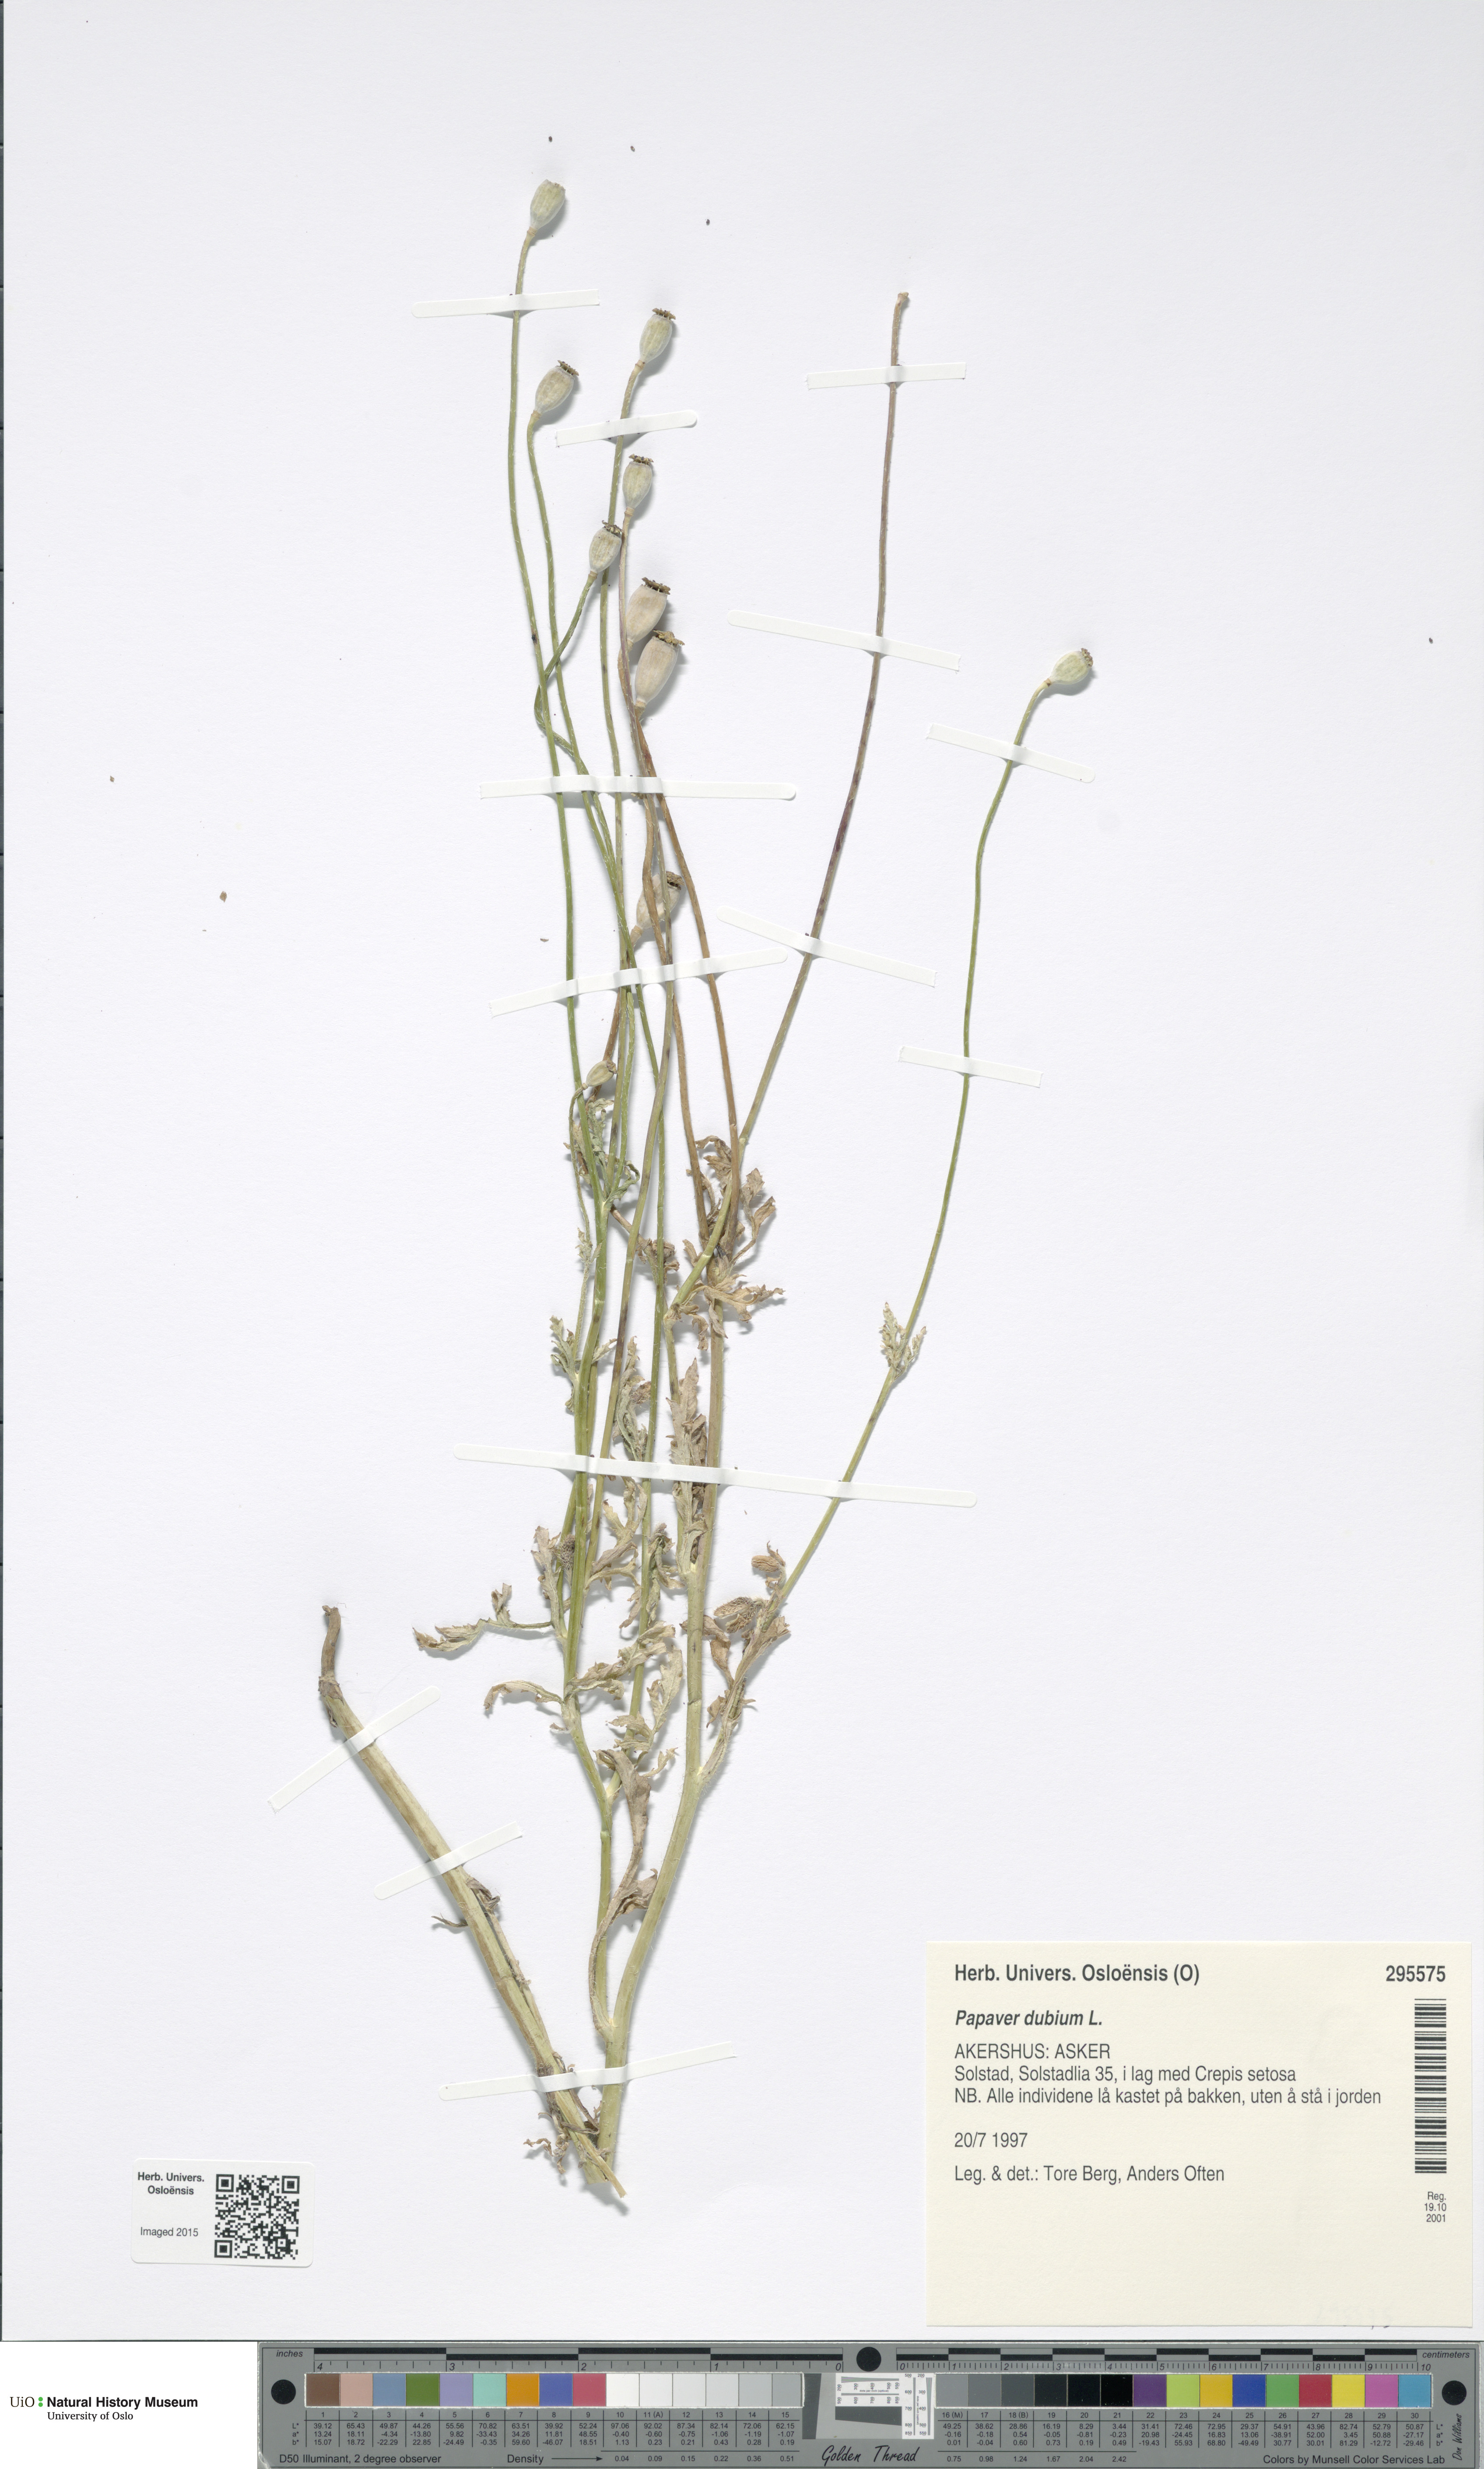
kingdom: Plantae
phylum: Tracheophyta
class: Magnoliopsida
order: Ranunculales
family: Papaveraceae
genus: Papaver
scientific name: Papaver dubium
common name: Long-headed poppy
